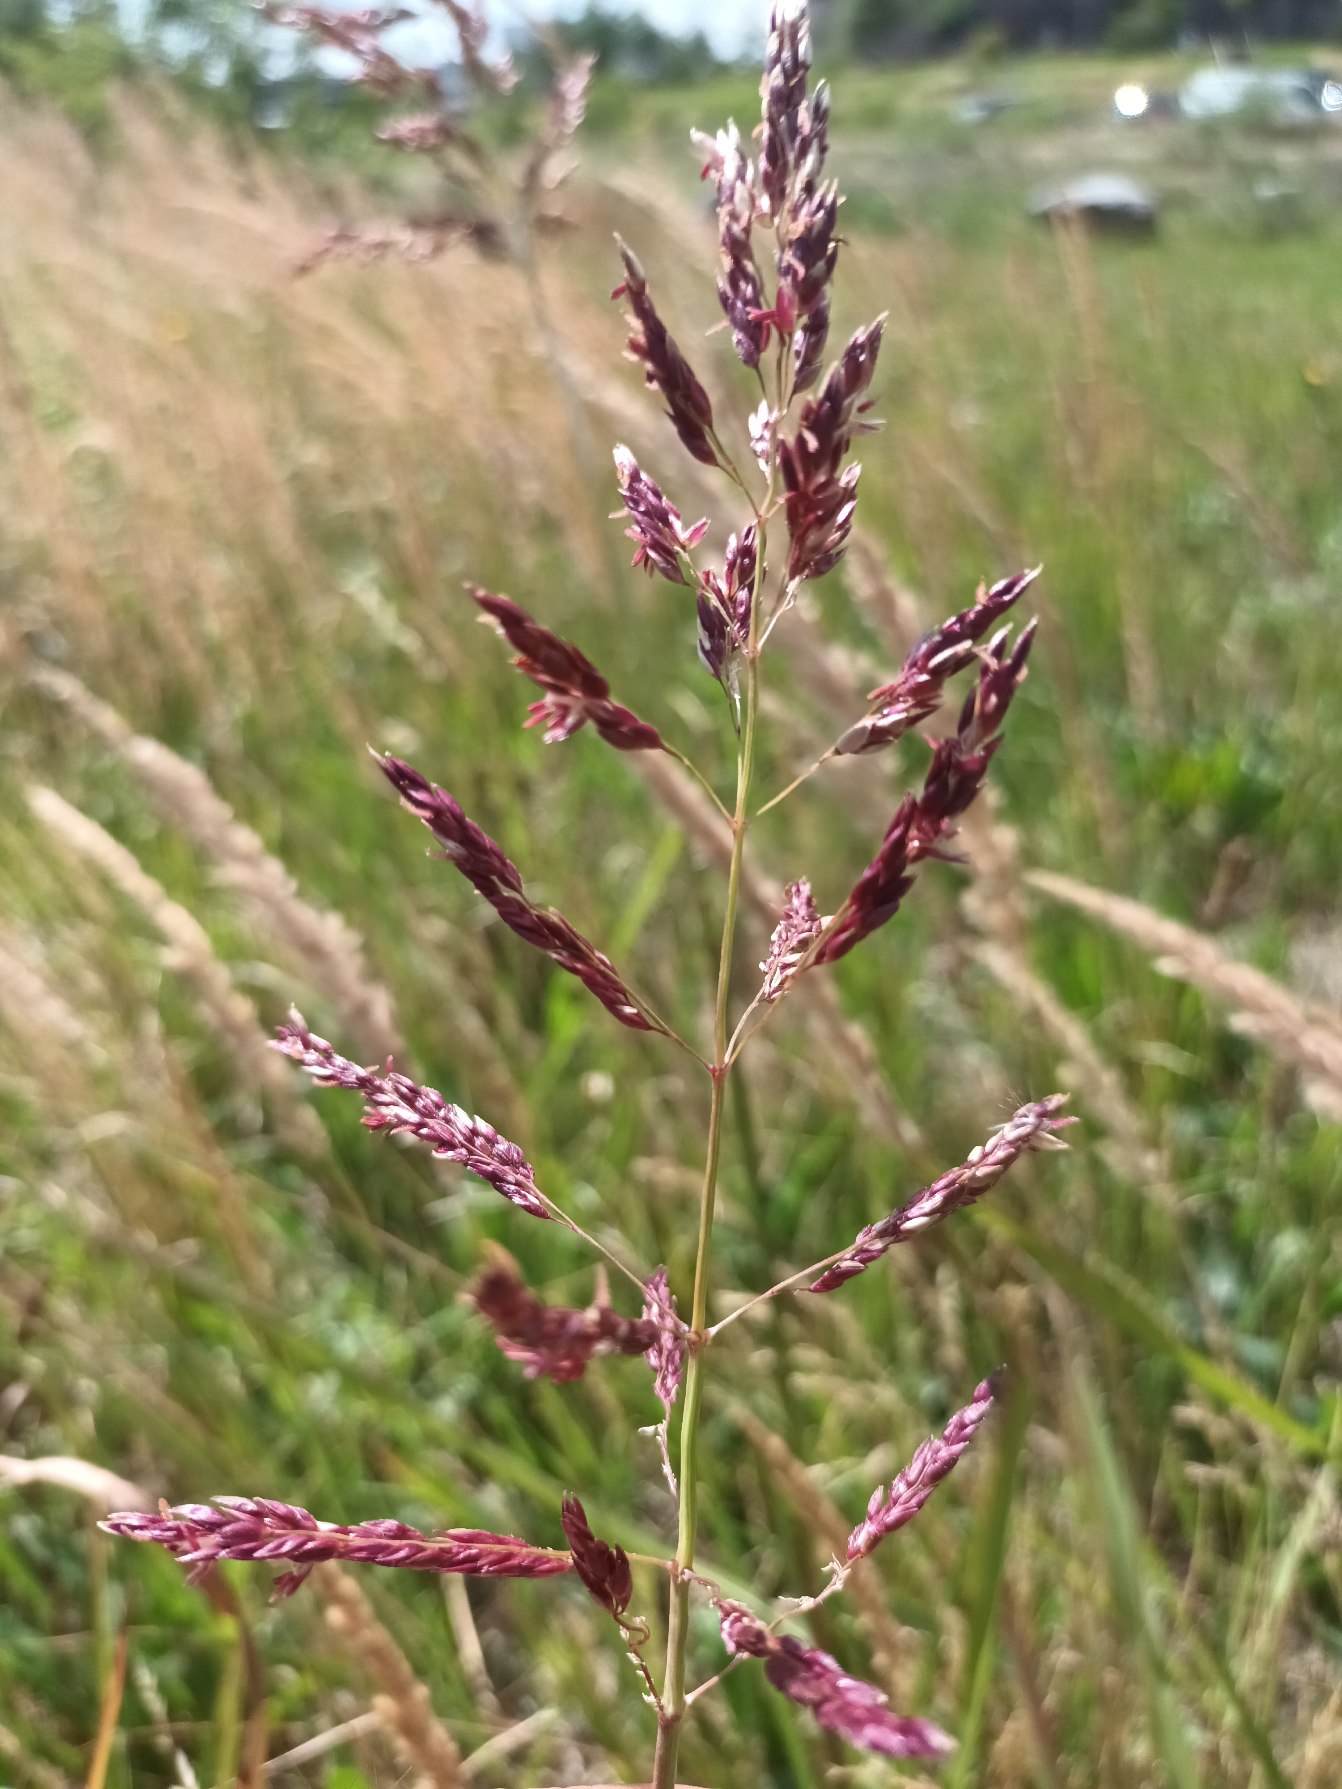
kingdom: Plantae
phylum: Tracheophyta
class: Liliopsida
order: Poales
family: Poaceae
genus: Sorghum
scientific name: Sorghum halepense
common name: Vild durra
